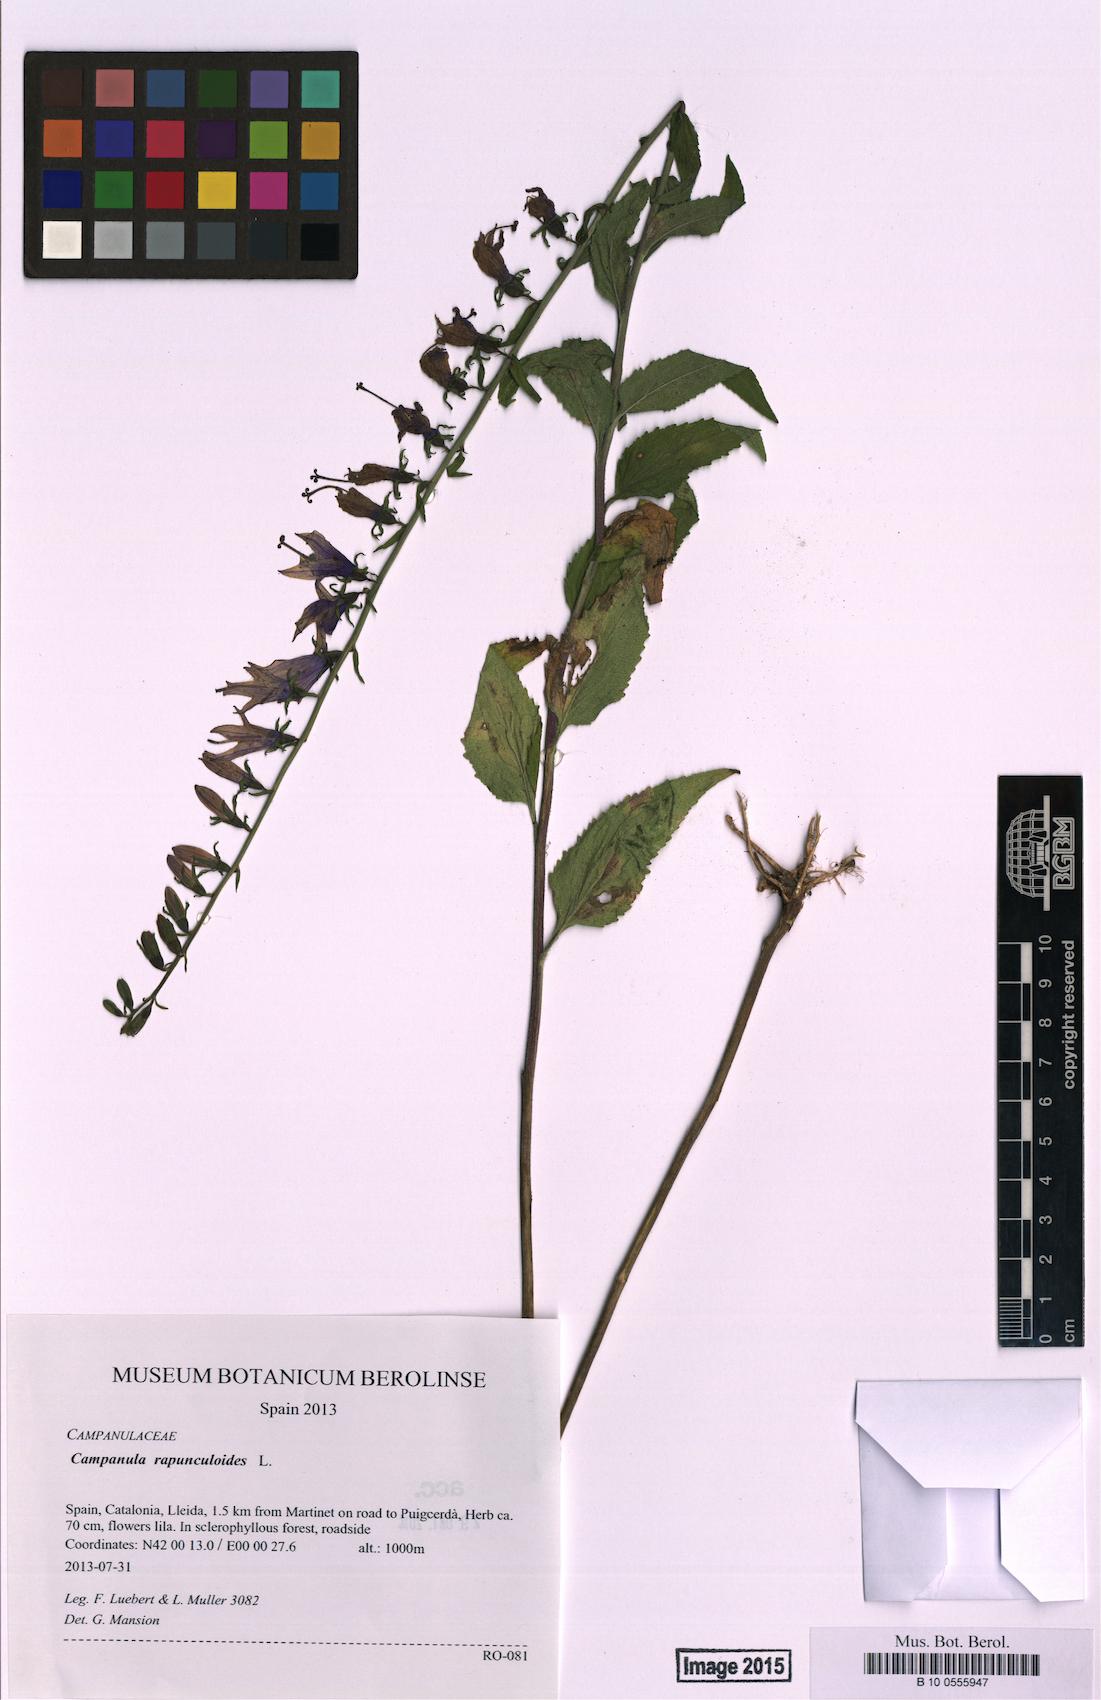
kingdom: Plantae
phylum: Tracheophyta
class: Magnoliopsida
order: Asterales
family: Campanulaceae
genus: Campanula
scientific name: Campanula rapunculoides
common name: Creeping bellflower
